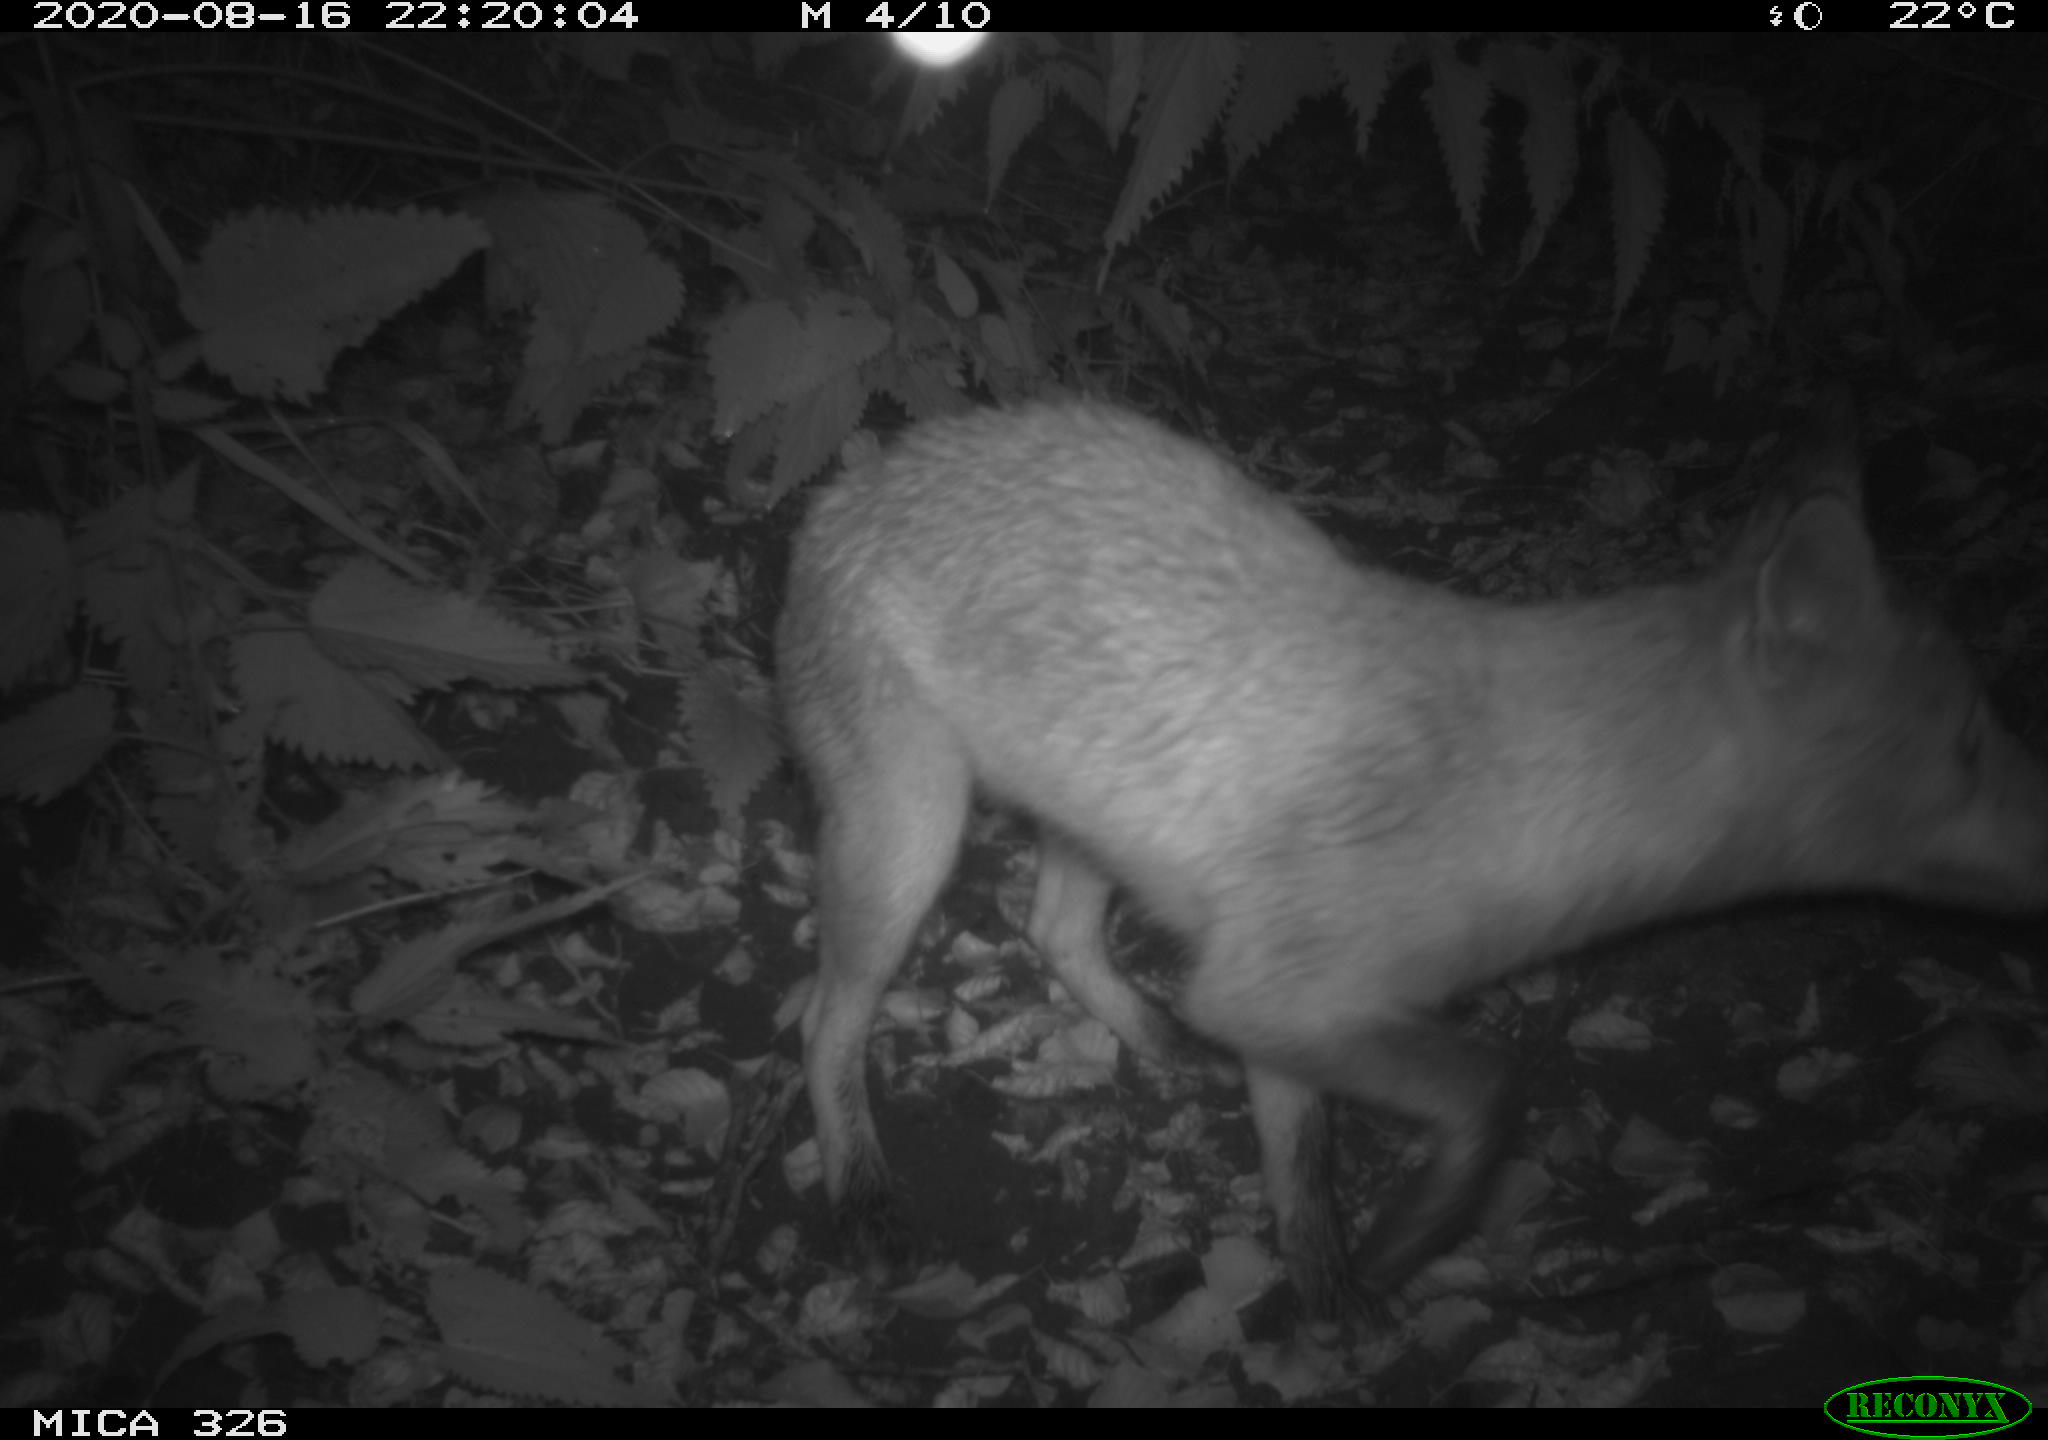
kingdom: Animalia
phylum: Chordata
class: Mammalia
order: Carnivora
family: Canidae
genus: Vulpes
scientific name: Vulpes vulpes
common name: Red fox
